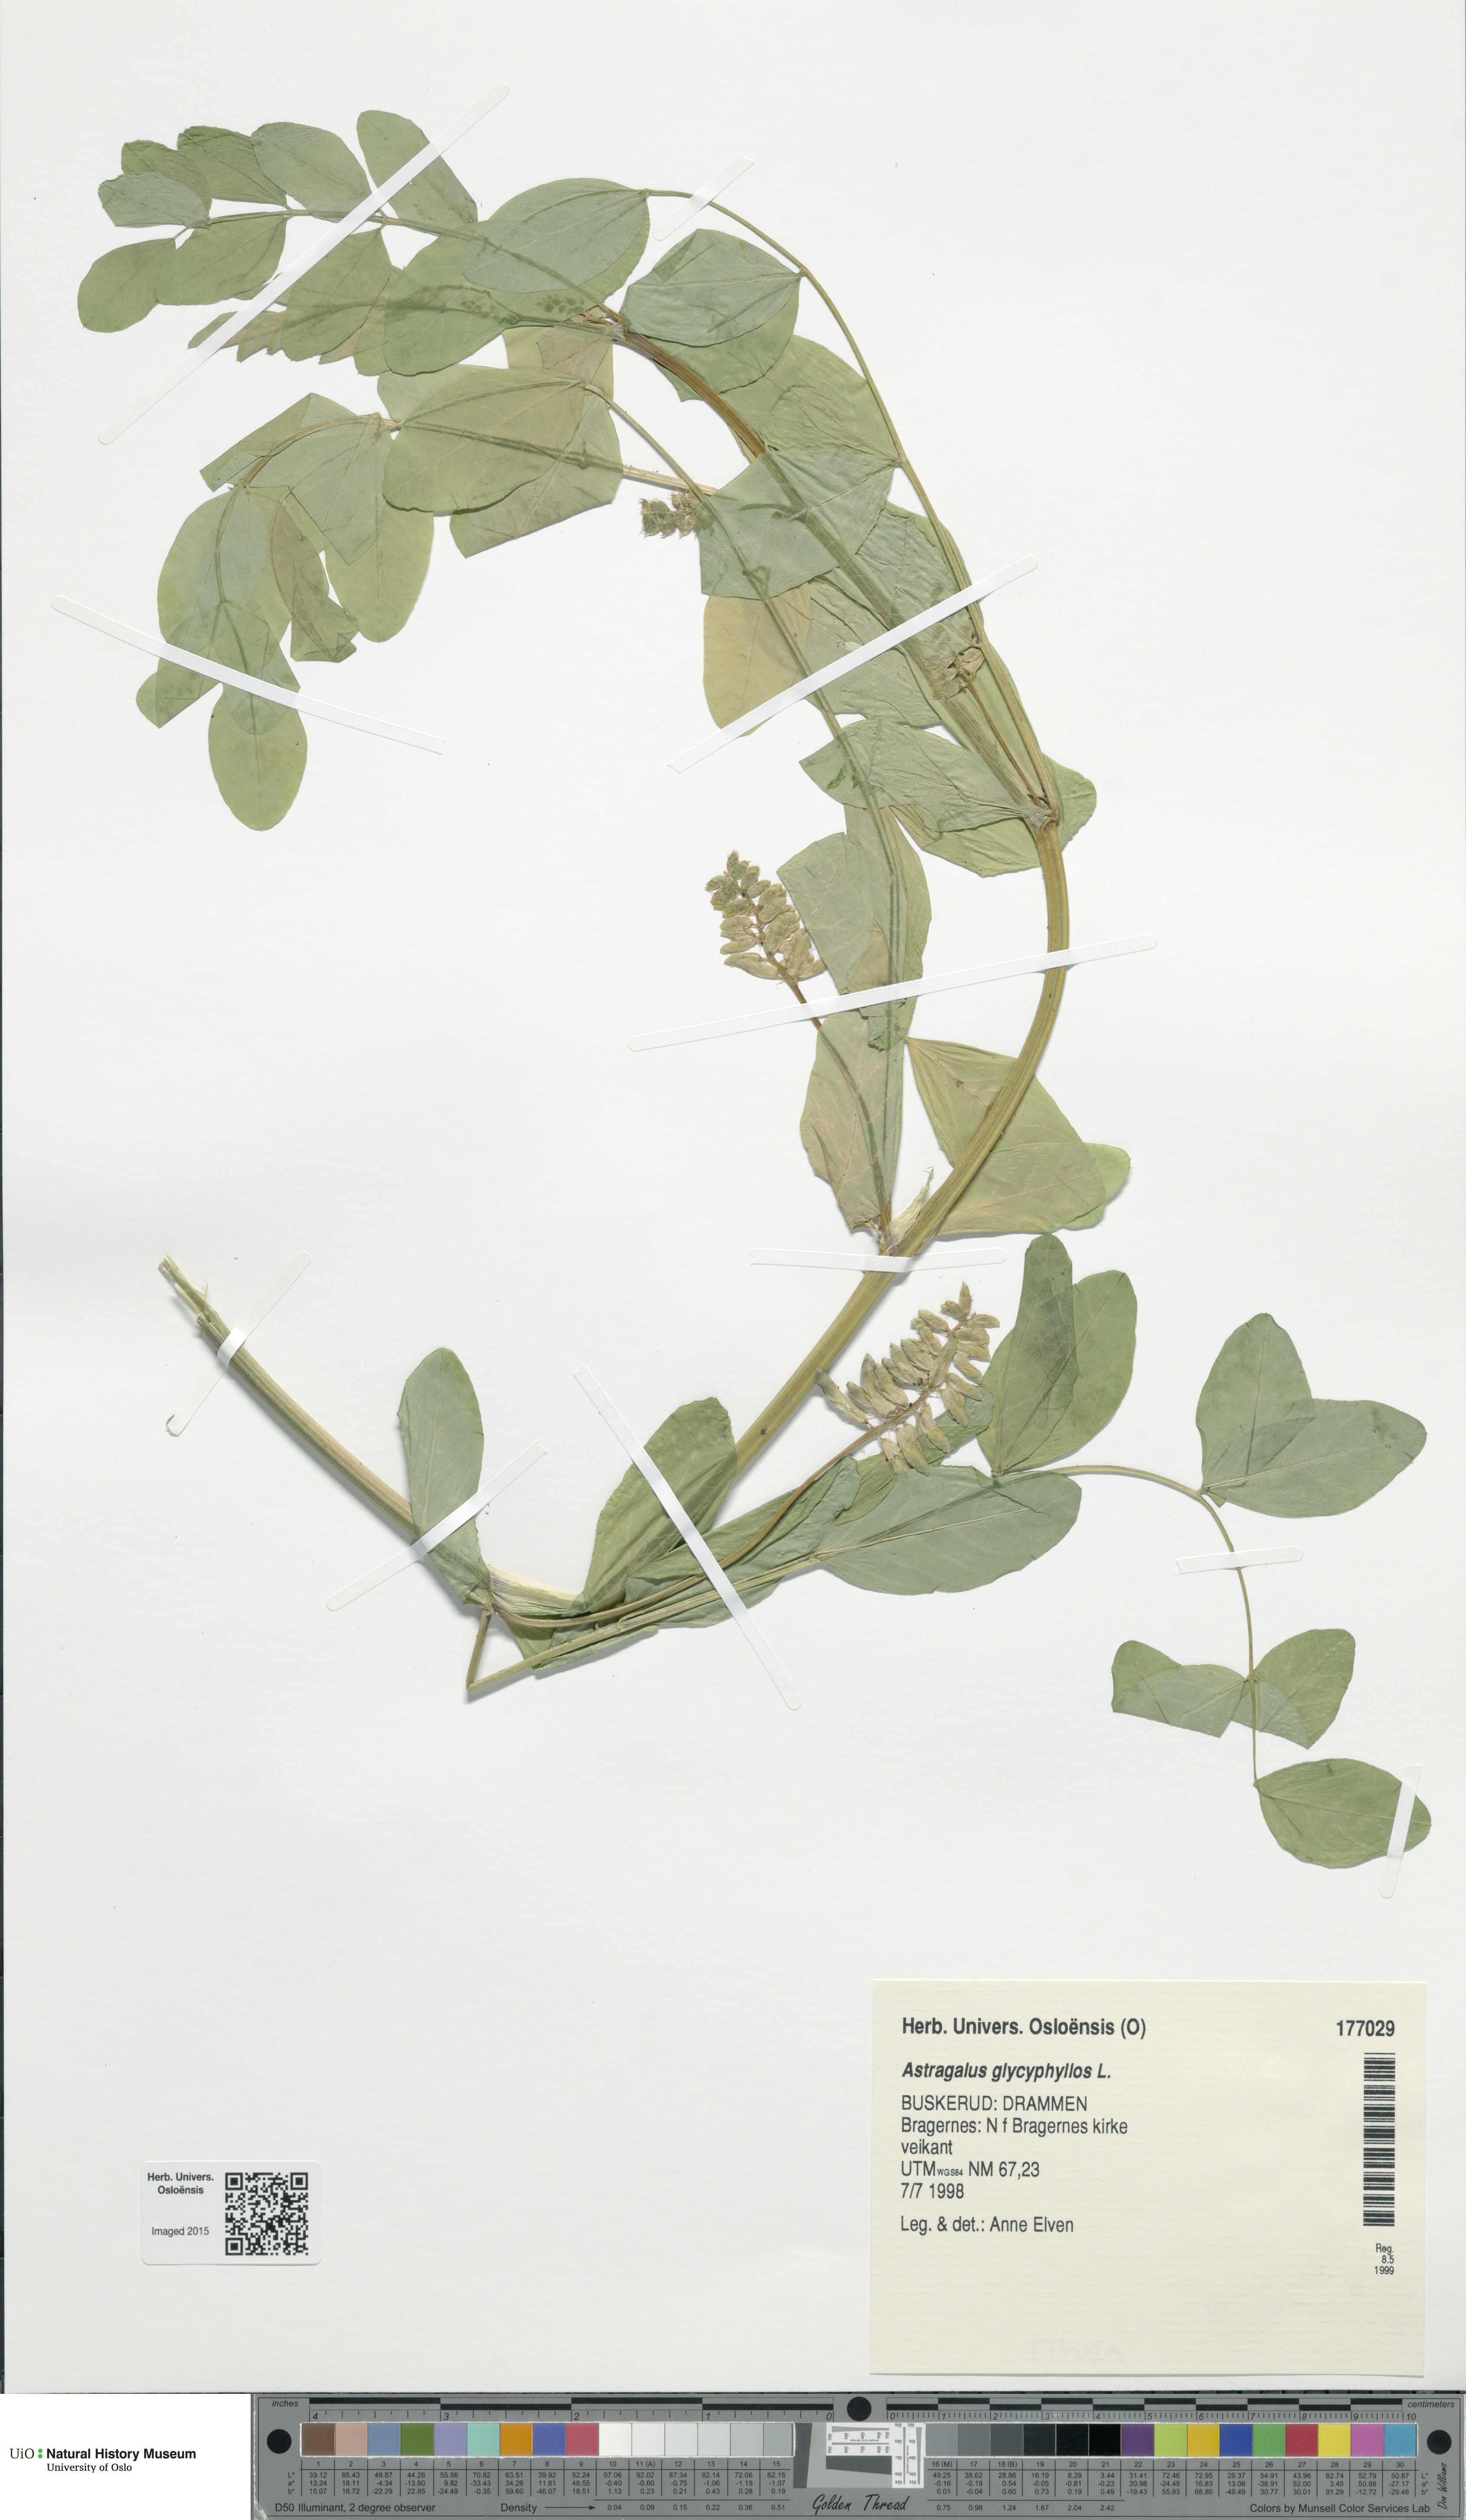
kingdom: Plantae
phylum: Tracheophyta
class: Magnoliopsida
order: Fabales
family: Fabaceae
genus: Astragalus
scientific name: Astragalus glycyphyllos
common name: Wild liquorice
